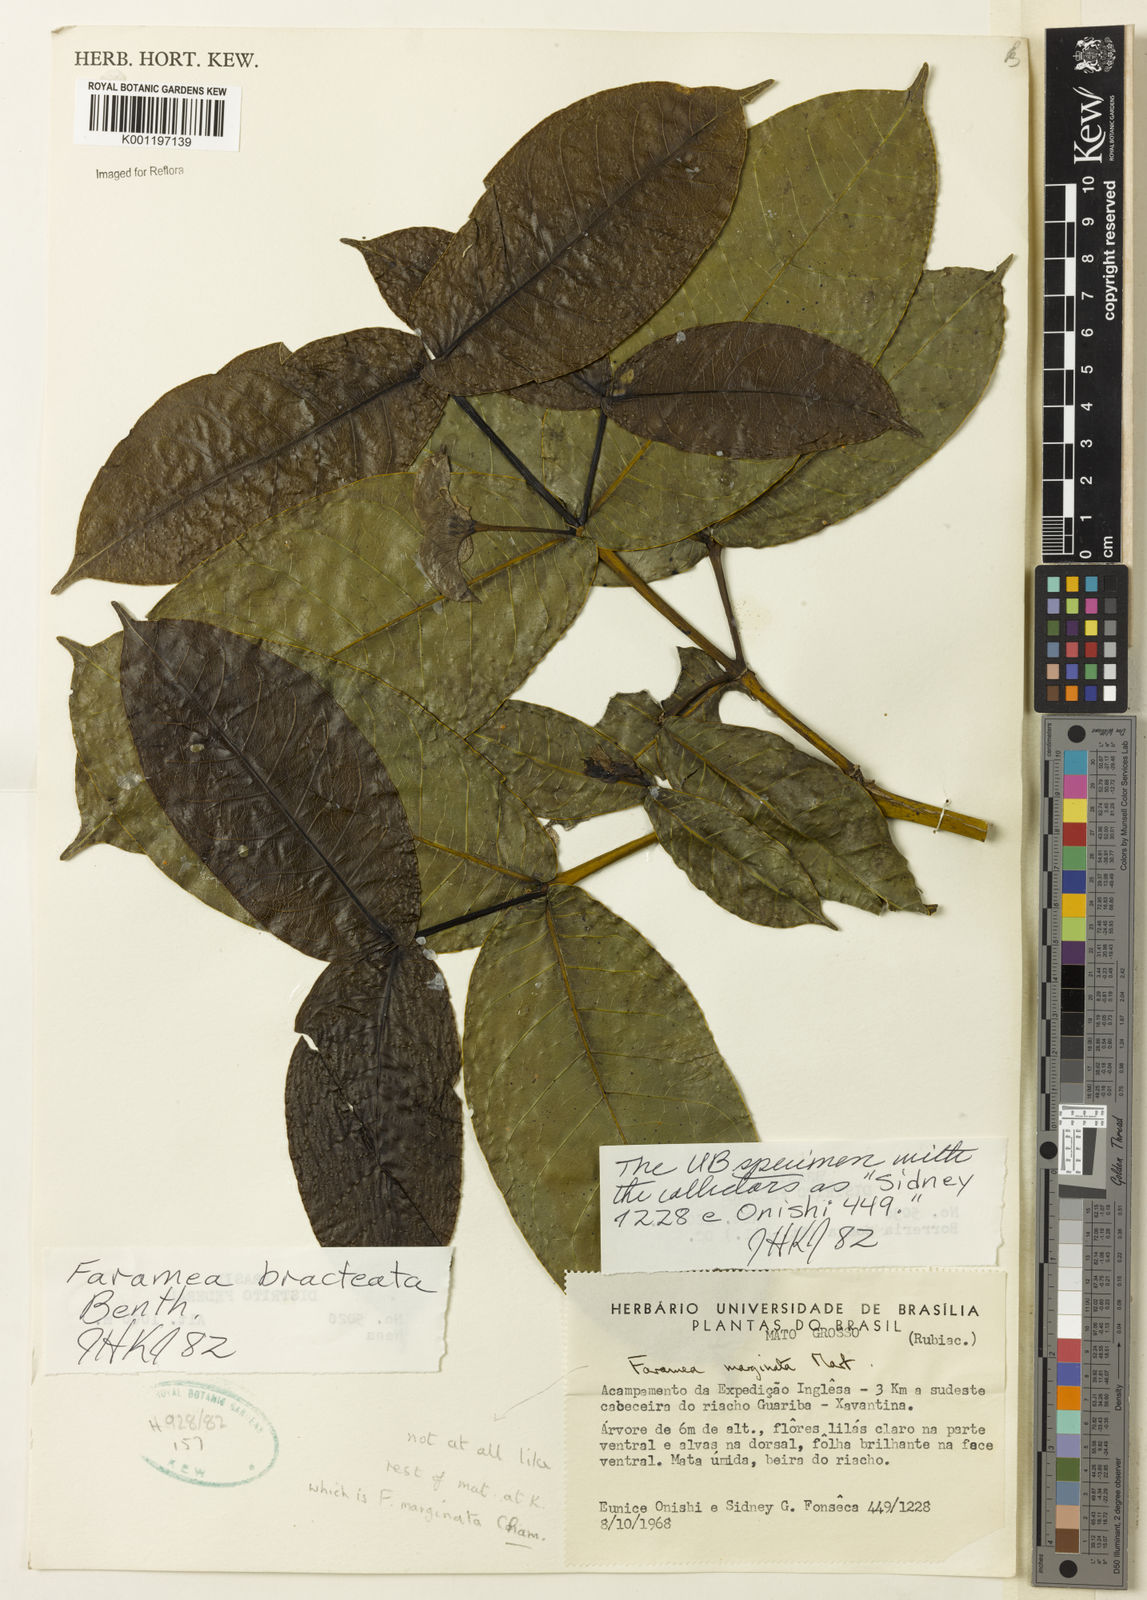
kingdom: Plantae
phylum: Tracheophyta
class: Magnoliopsida
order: Gentianales
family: Rubiaceae
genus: Faramea
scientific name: Faramea bracteata
